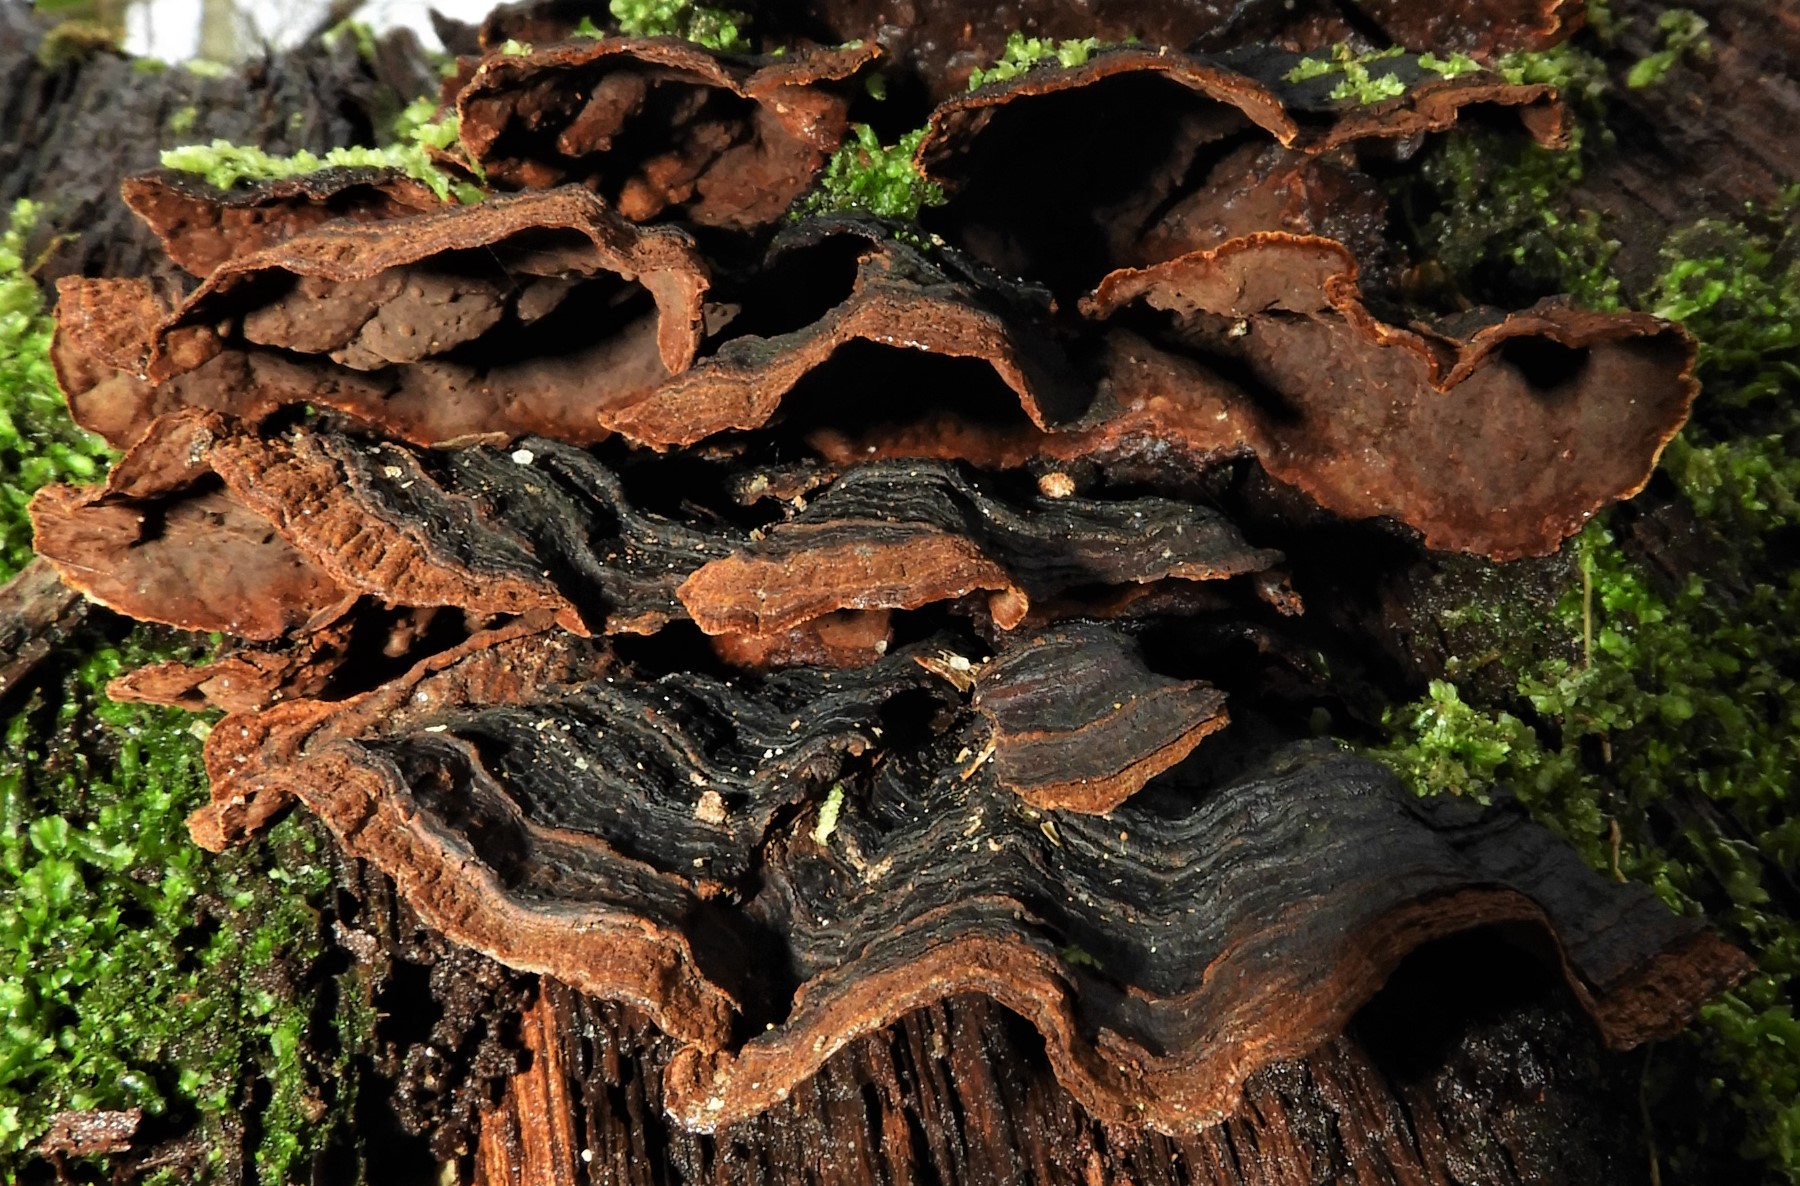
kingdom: Fungi
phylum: Basidiomycota
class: Agaricomycetes
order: Hymenochaetales
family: Hymenochaetaceae
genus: Hymenochaete
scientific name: Hymenochaete rubiginosa
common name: stiv ruslædersvamp
